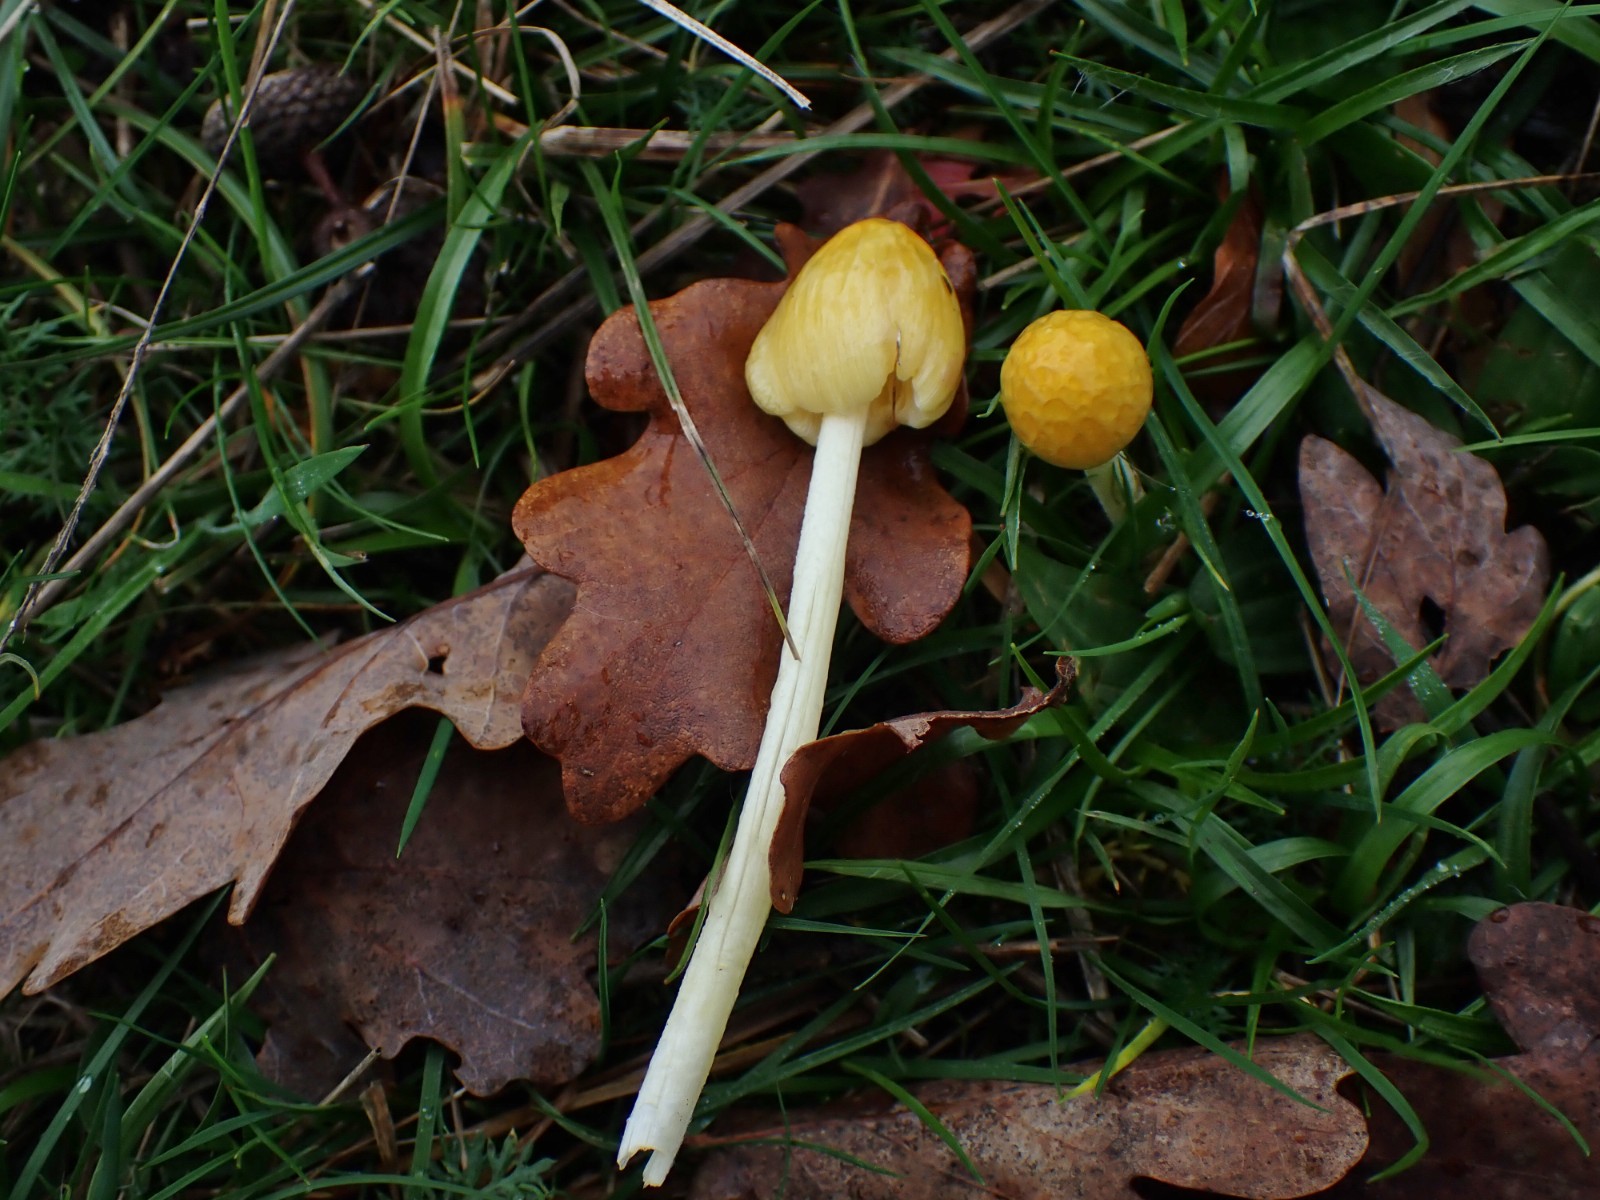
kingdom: Fungi
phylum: Basidiomycota
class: Agaricomycetes
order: Agaricales
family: Bolbitiaceae
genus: Bolbitius
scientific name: Bolbitius titubans
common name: almindelig gulhat
